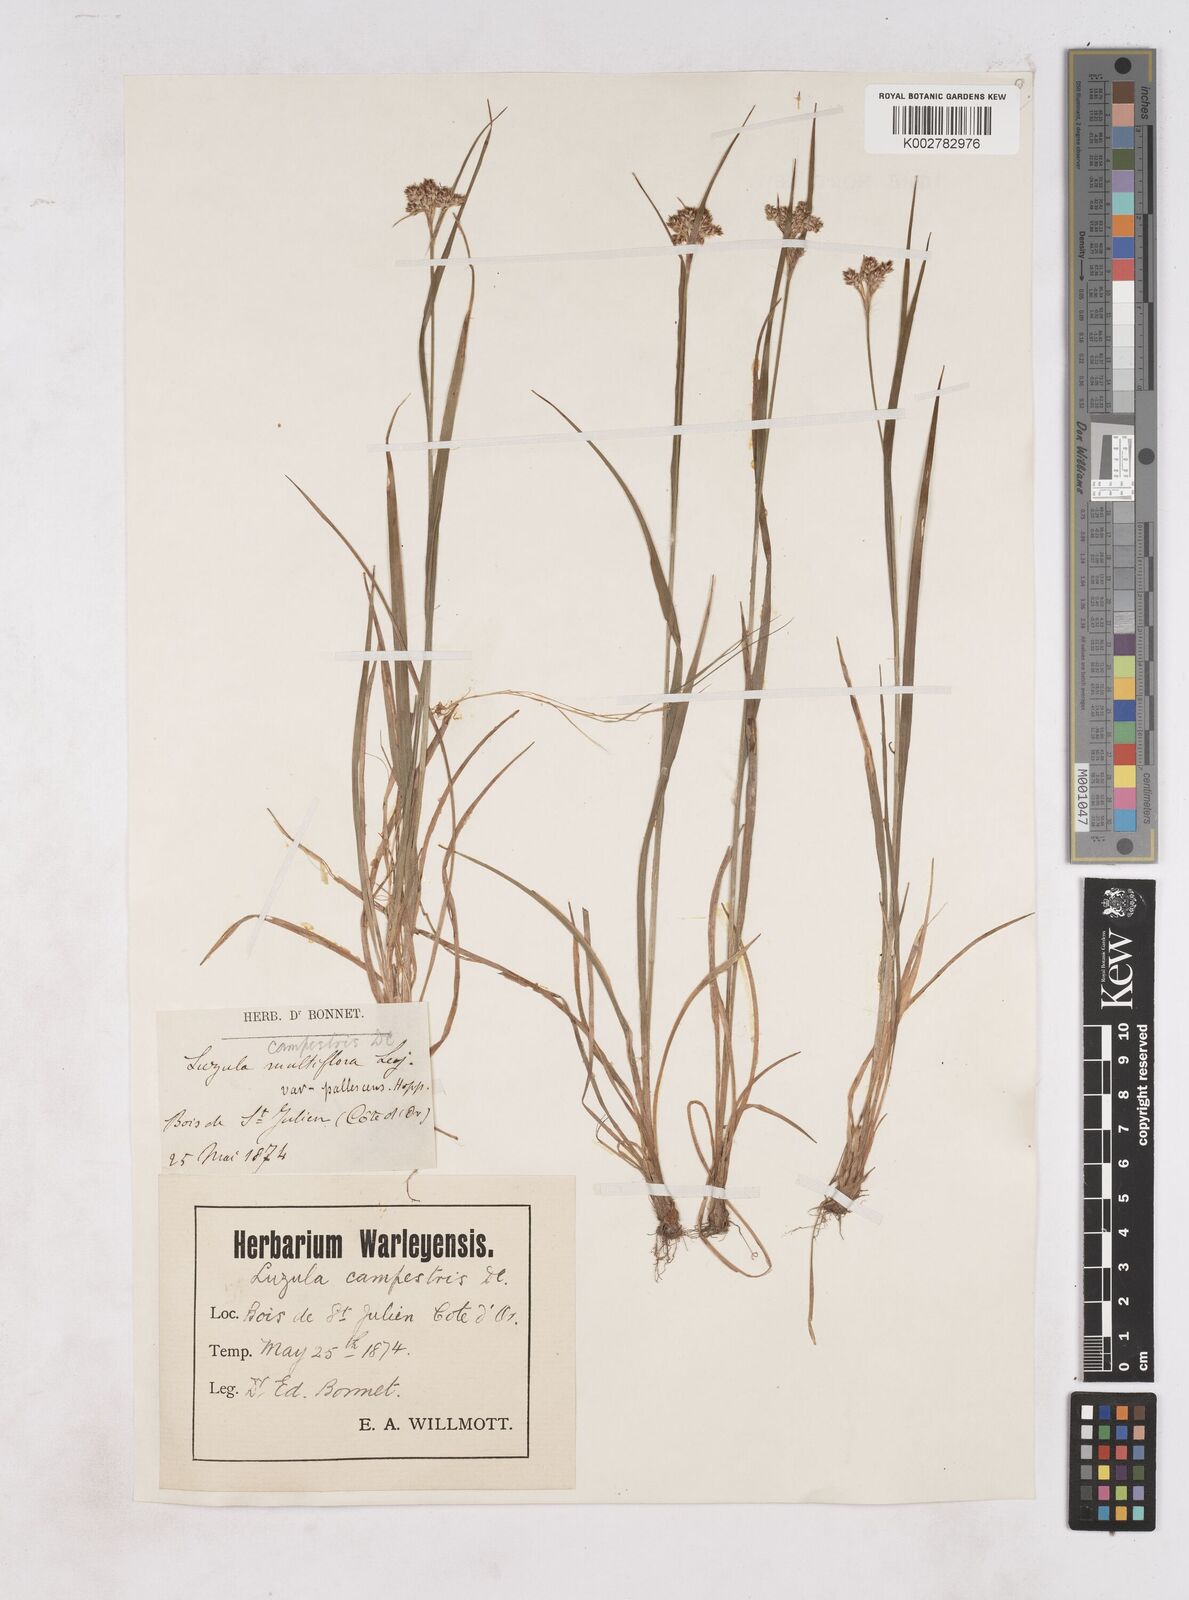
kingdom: Plantae
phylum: Tracheophyta
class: Liliopsida
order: Poales
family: Juncaceae
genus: Luzula
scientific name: Luzula campestris
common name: Field wood-rush
